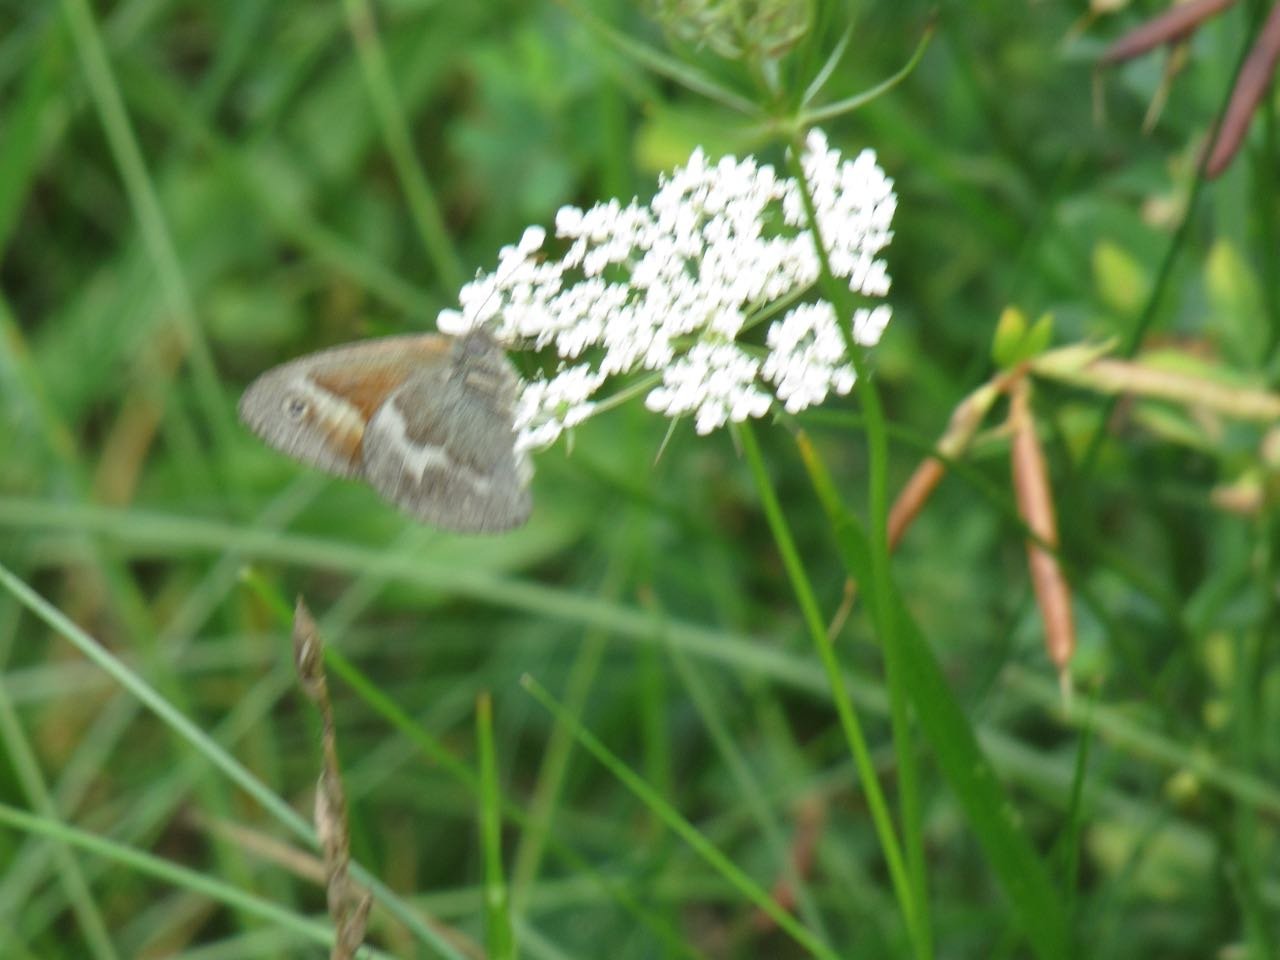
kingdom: Animalia
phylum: Arthropoda
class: Insecta
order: Lepidoptera
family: Nymphalidae
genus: Coenonympha
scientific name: Coenonympha tullia
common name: Large Heath
